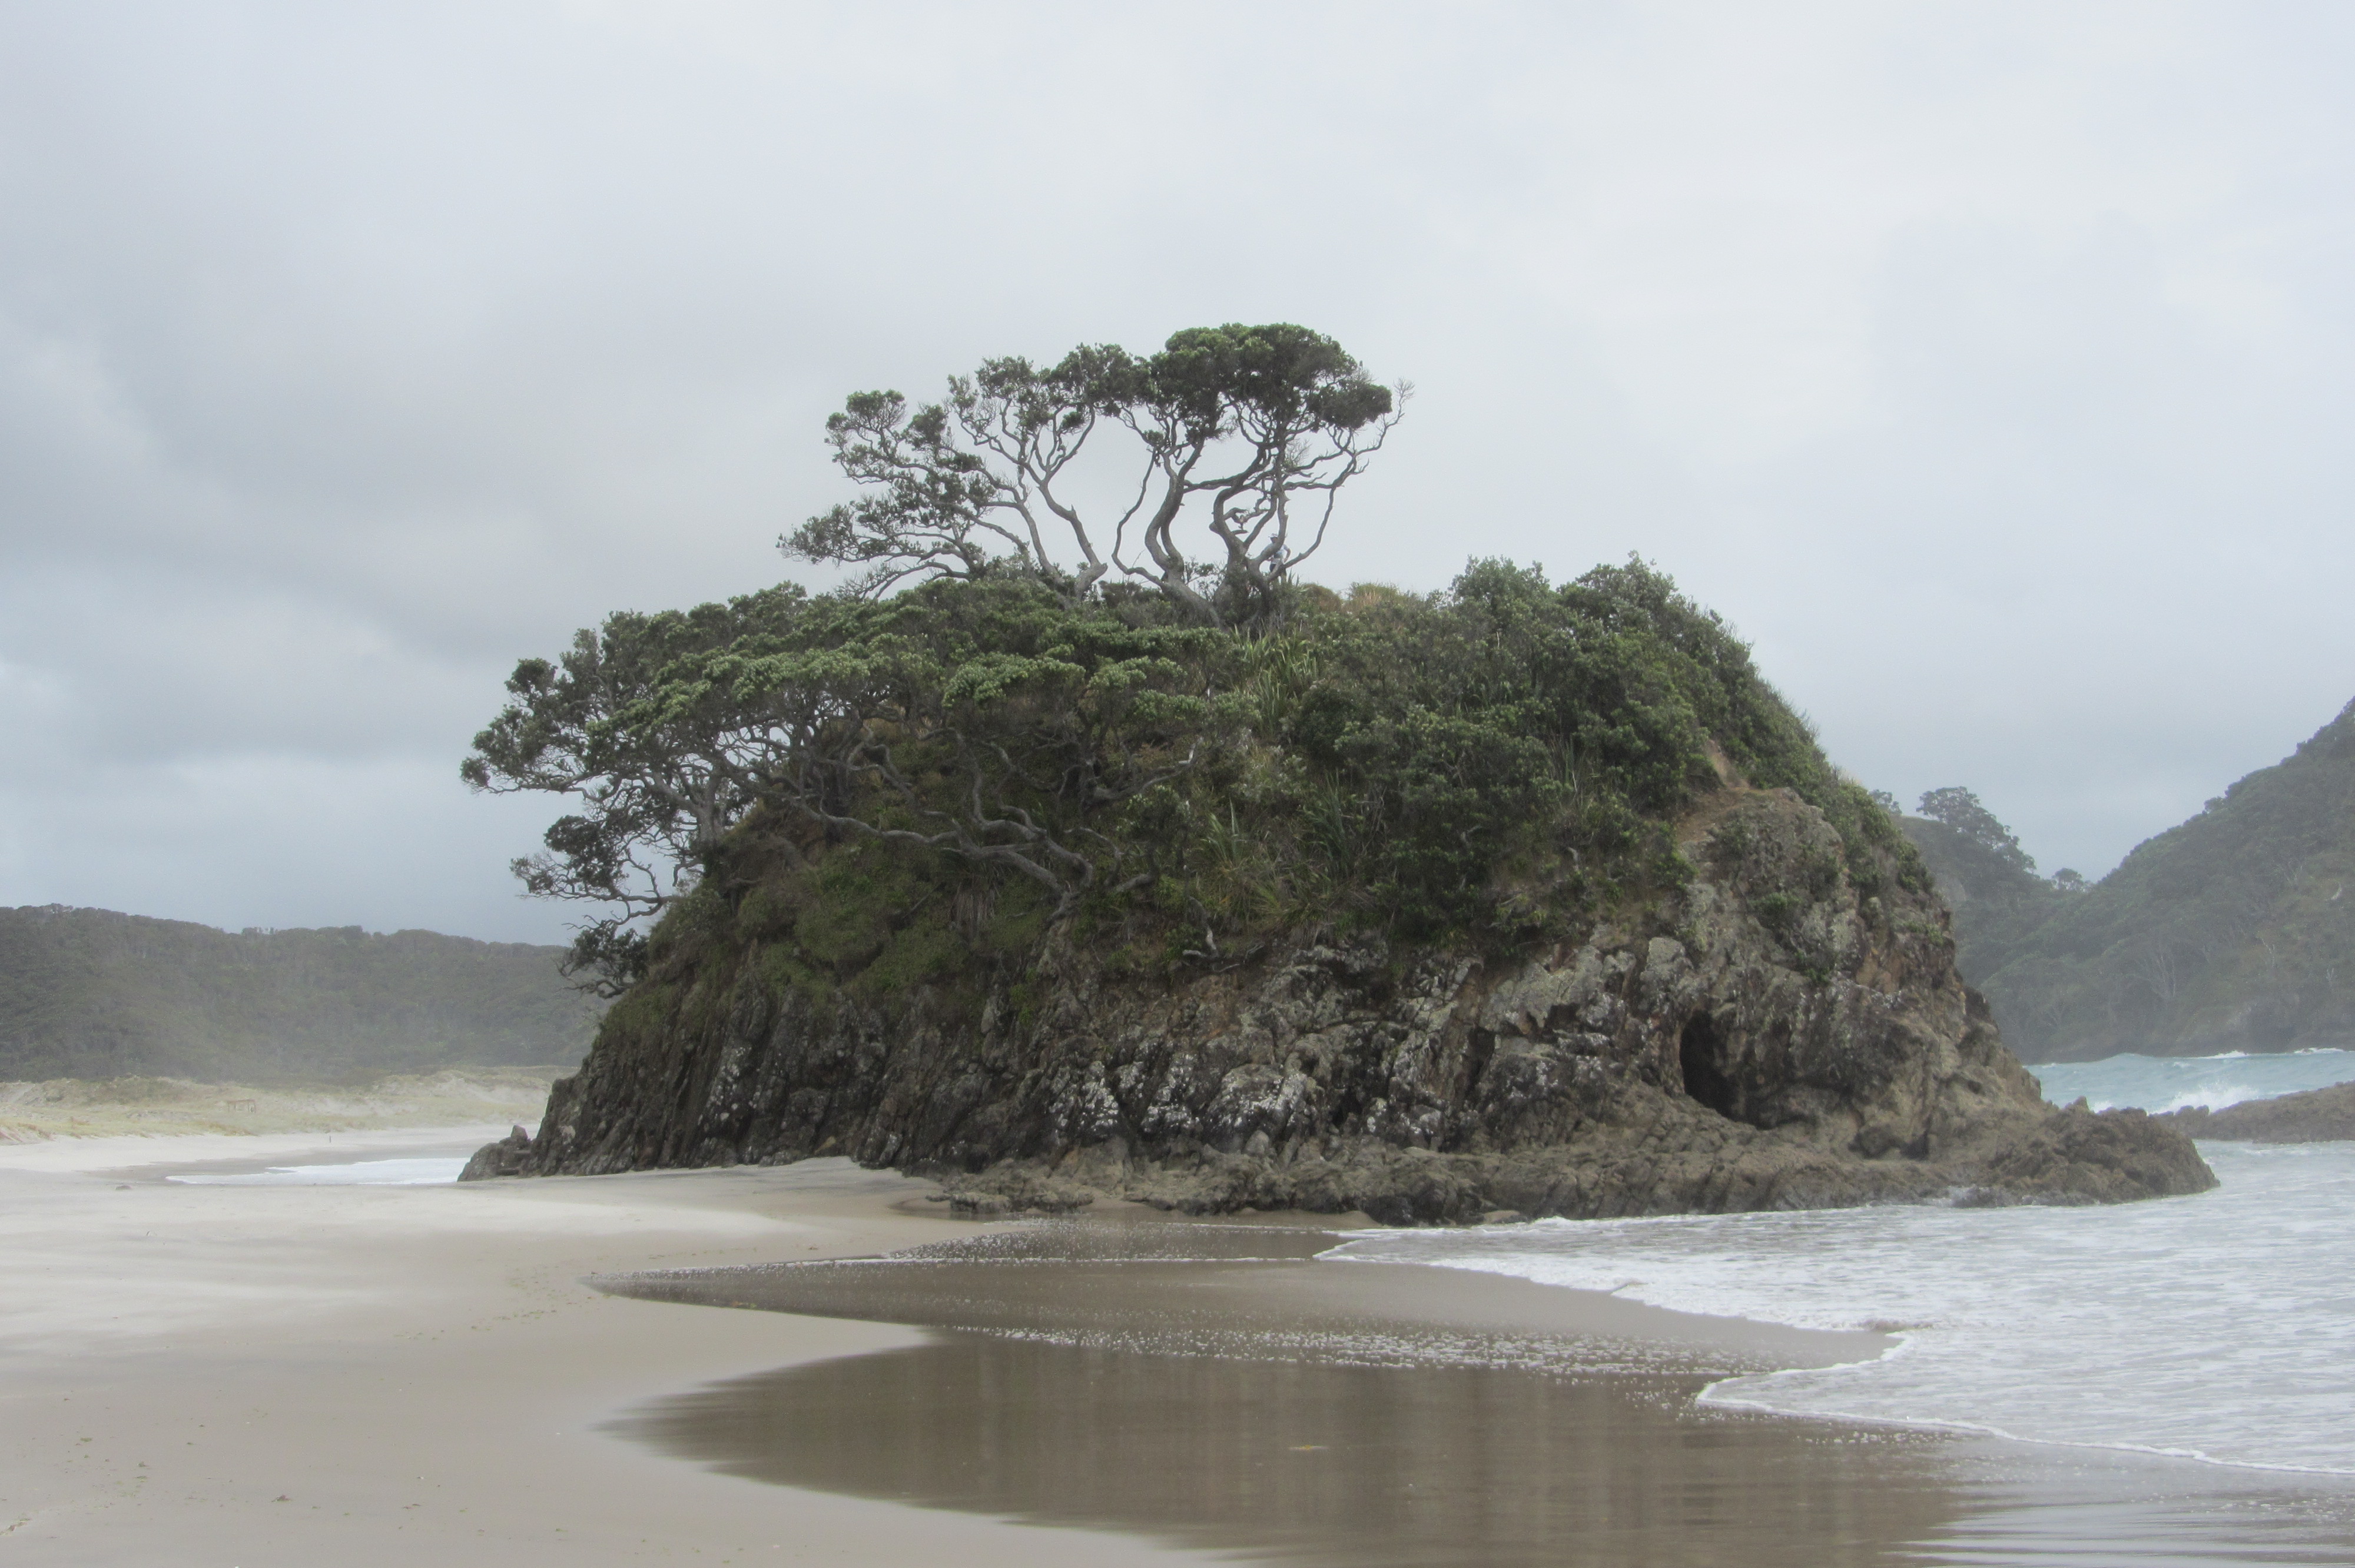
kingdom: Plantae
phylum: Tracheophyta
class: Liliopsida
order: Poales
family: Cyperaceae
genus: Cyperus
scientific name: Cyperus albostriatus
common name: Dwarf umbrella-grass
